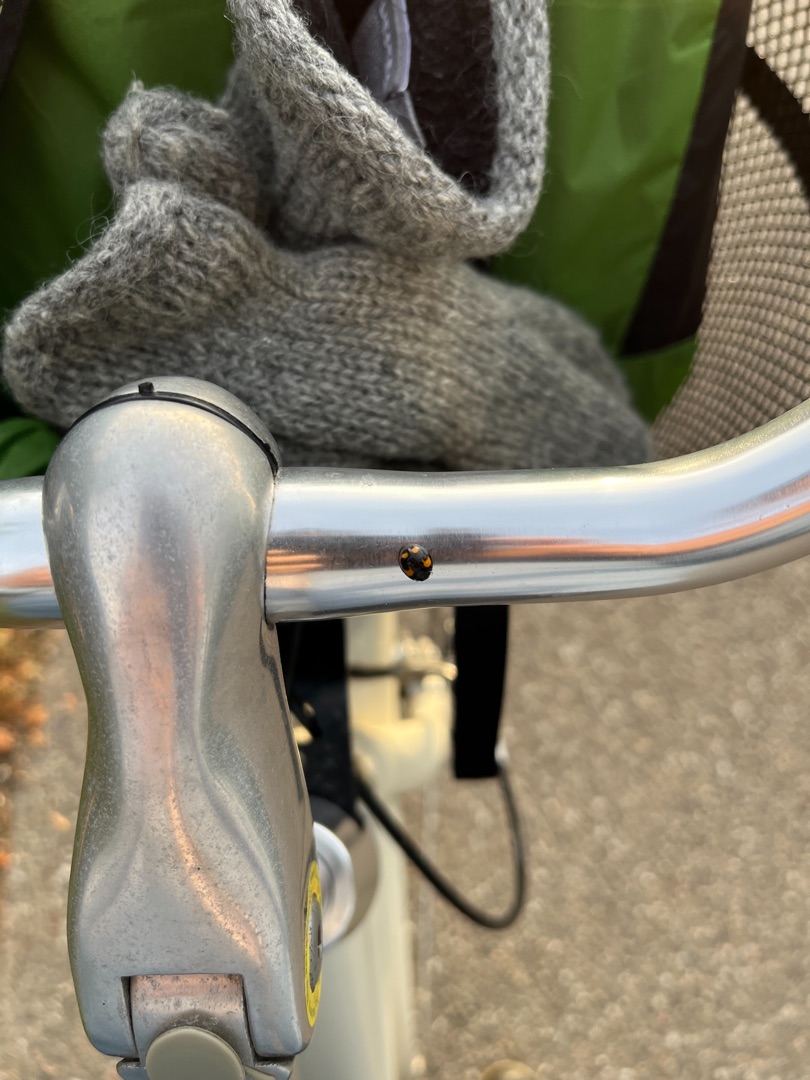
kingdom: Animalia
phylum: Arthropoda
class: Insecta
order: Coleoptera
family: Coccinellidae
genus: Harmonia
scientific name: Harmonia axyridis
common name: Harlekinmariehøne
